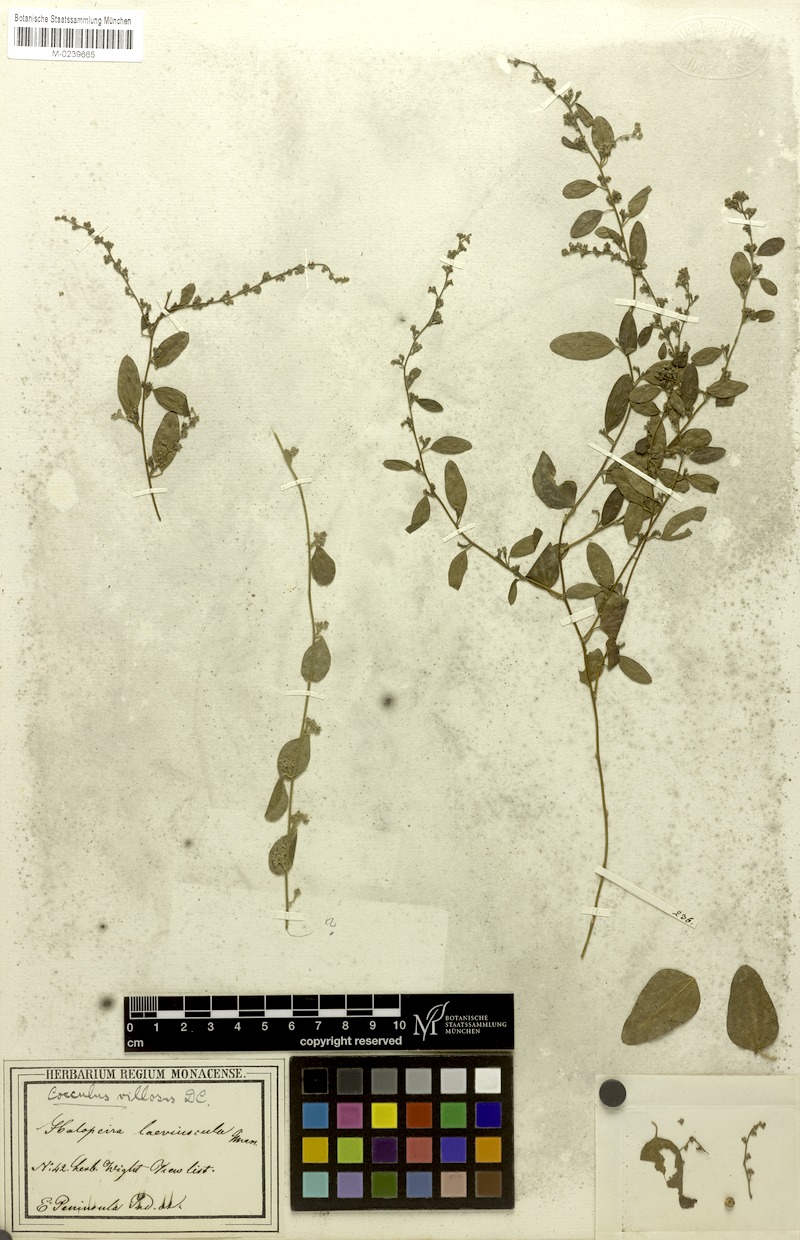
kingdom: Plantae
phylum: Tracheophyta
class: Magnoliopsida
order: Ranunculales
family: Menispermaceae
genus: Cocculus
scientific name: Cocculus hirsutus
